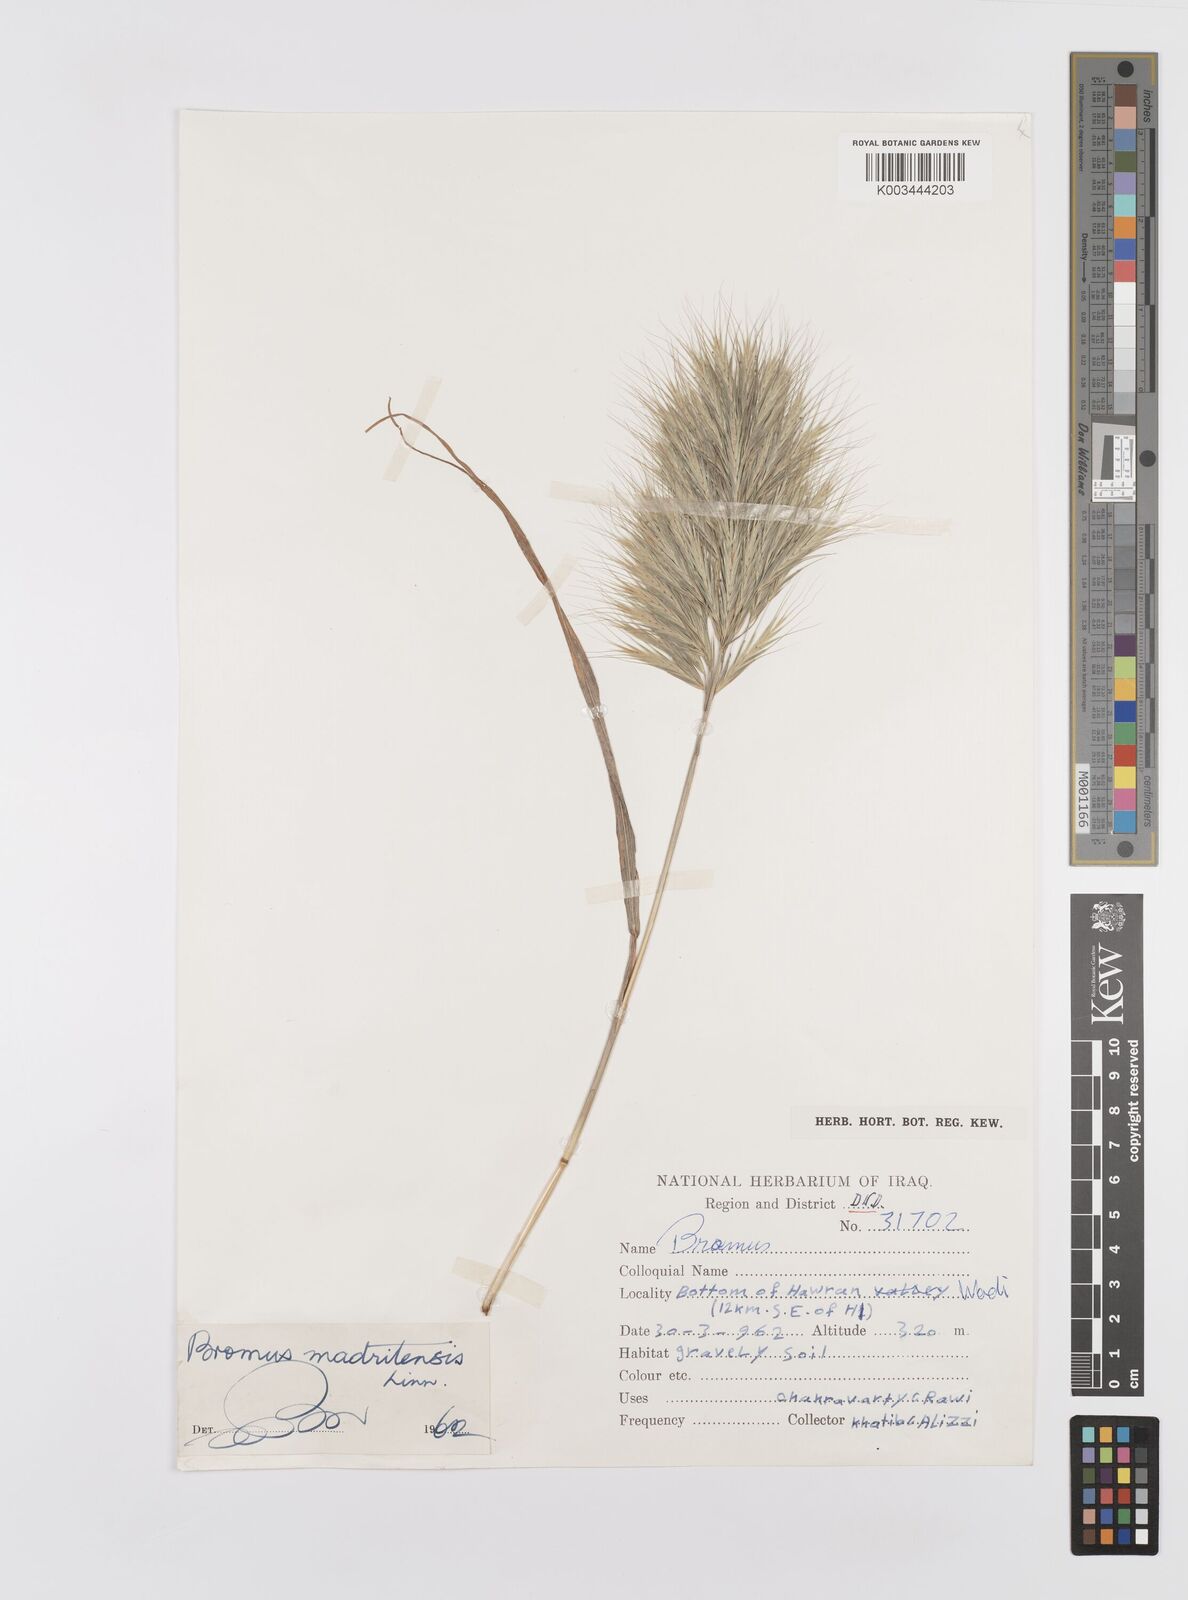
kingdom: Plantae
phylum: Tracheophyta
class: Liliopsida
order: Poales
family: Poaceae
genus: Bromus
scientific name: Bromus madritensis
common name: Compact brome
